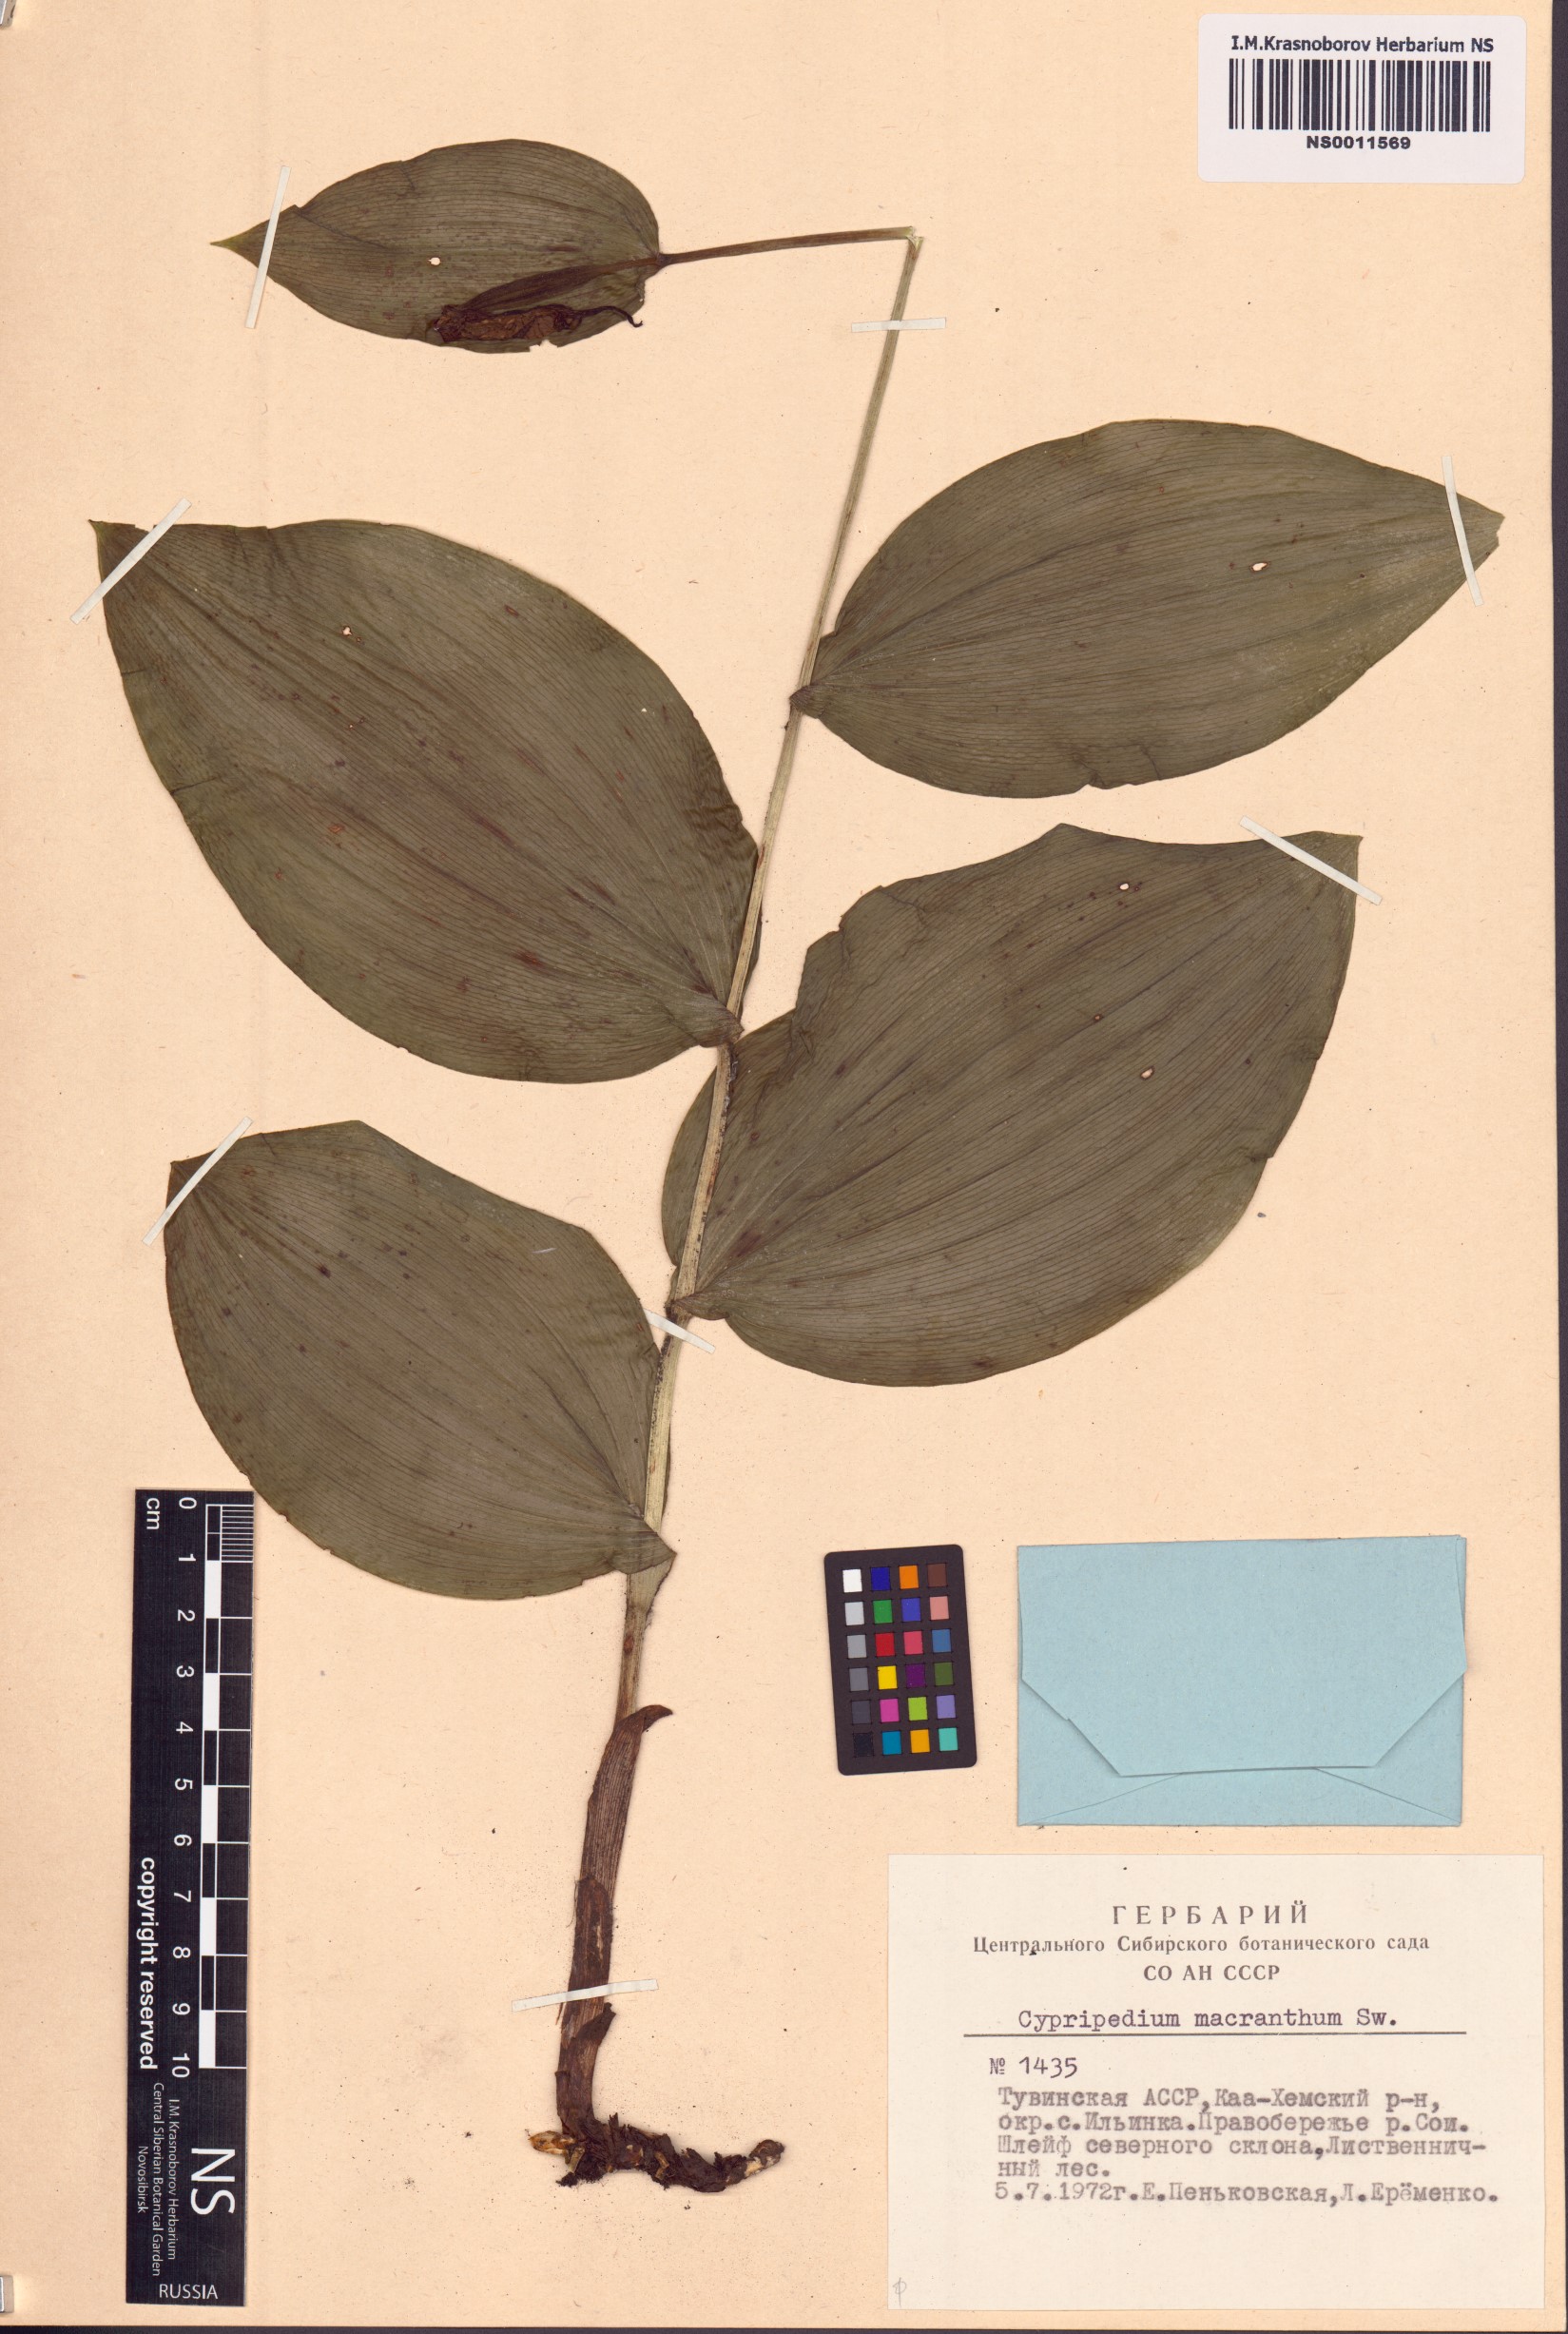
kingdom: Plantae
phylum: Tracheophyta
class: Liliopsida
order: Asparagales
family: Orchidaceae
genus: Cypripedium
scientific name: Cypripedium macranthos
